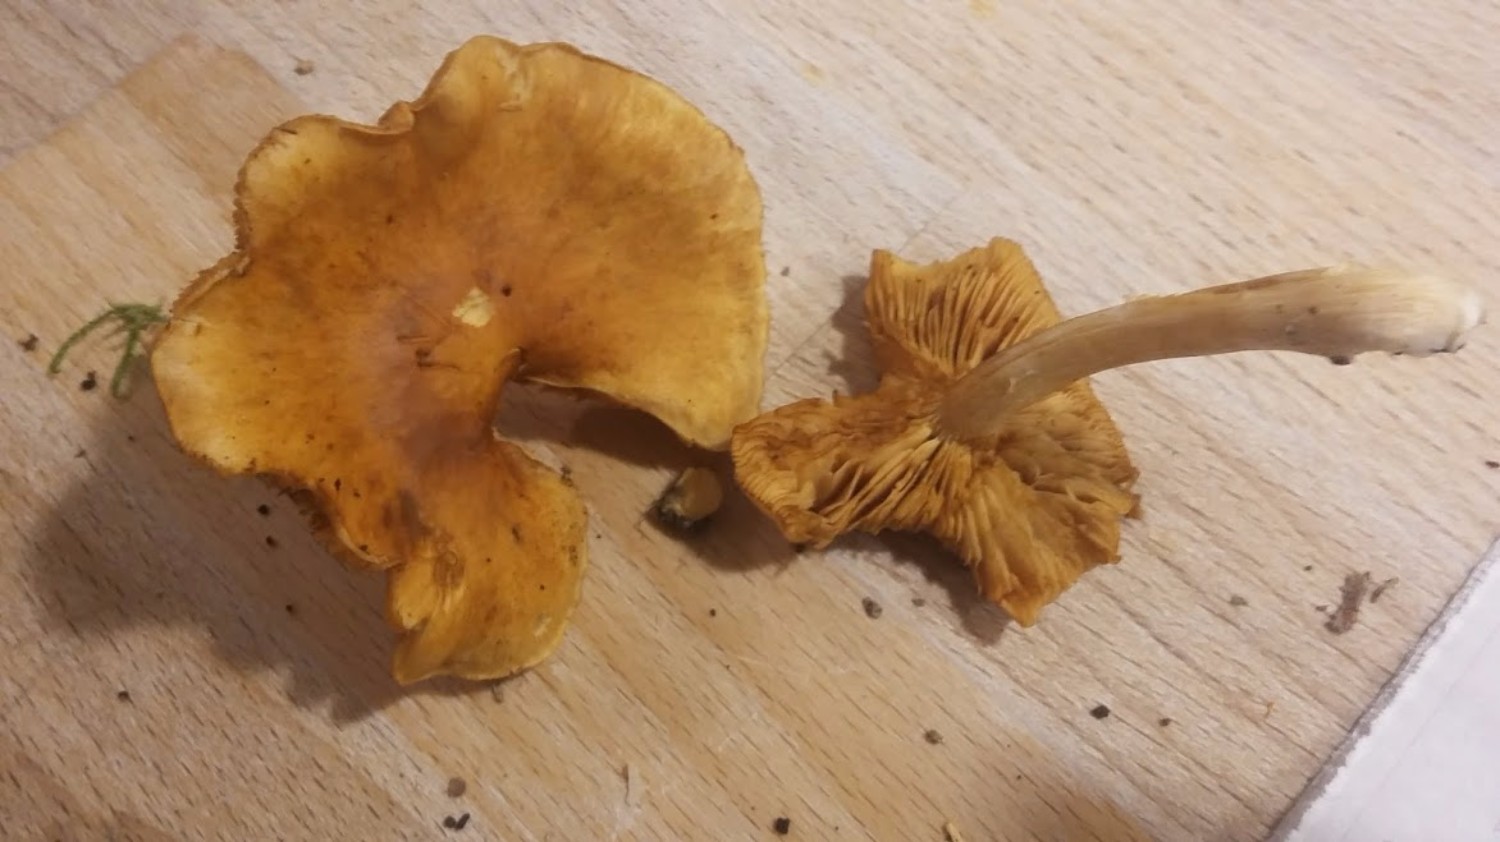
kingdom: Fungi
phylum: Basidiomycota
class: Agaricomycetes
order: Agaricales
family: Hymenogastraceae
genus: Gymnopilus
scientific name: Gymnopilus penetrans
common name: plettet flammehat
